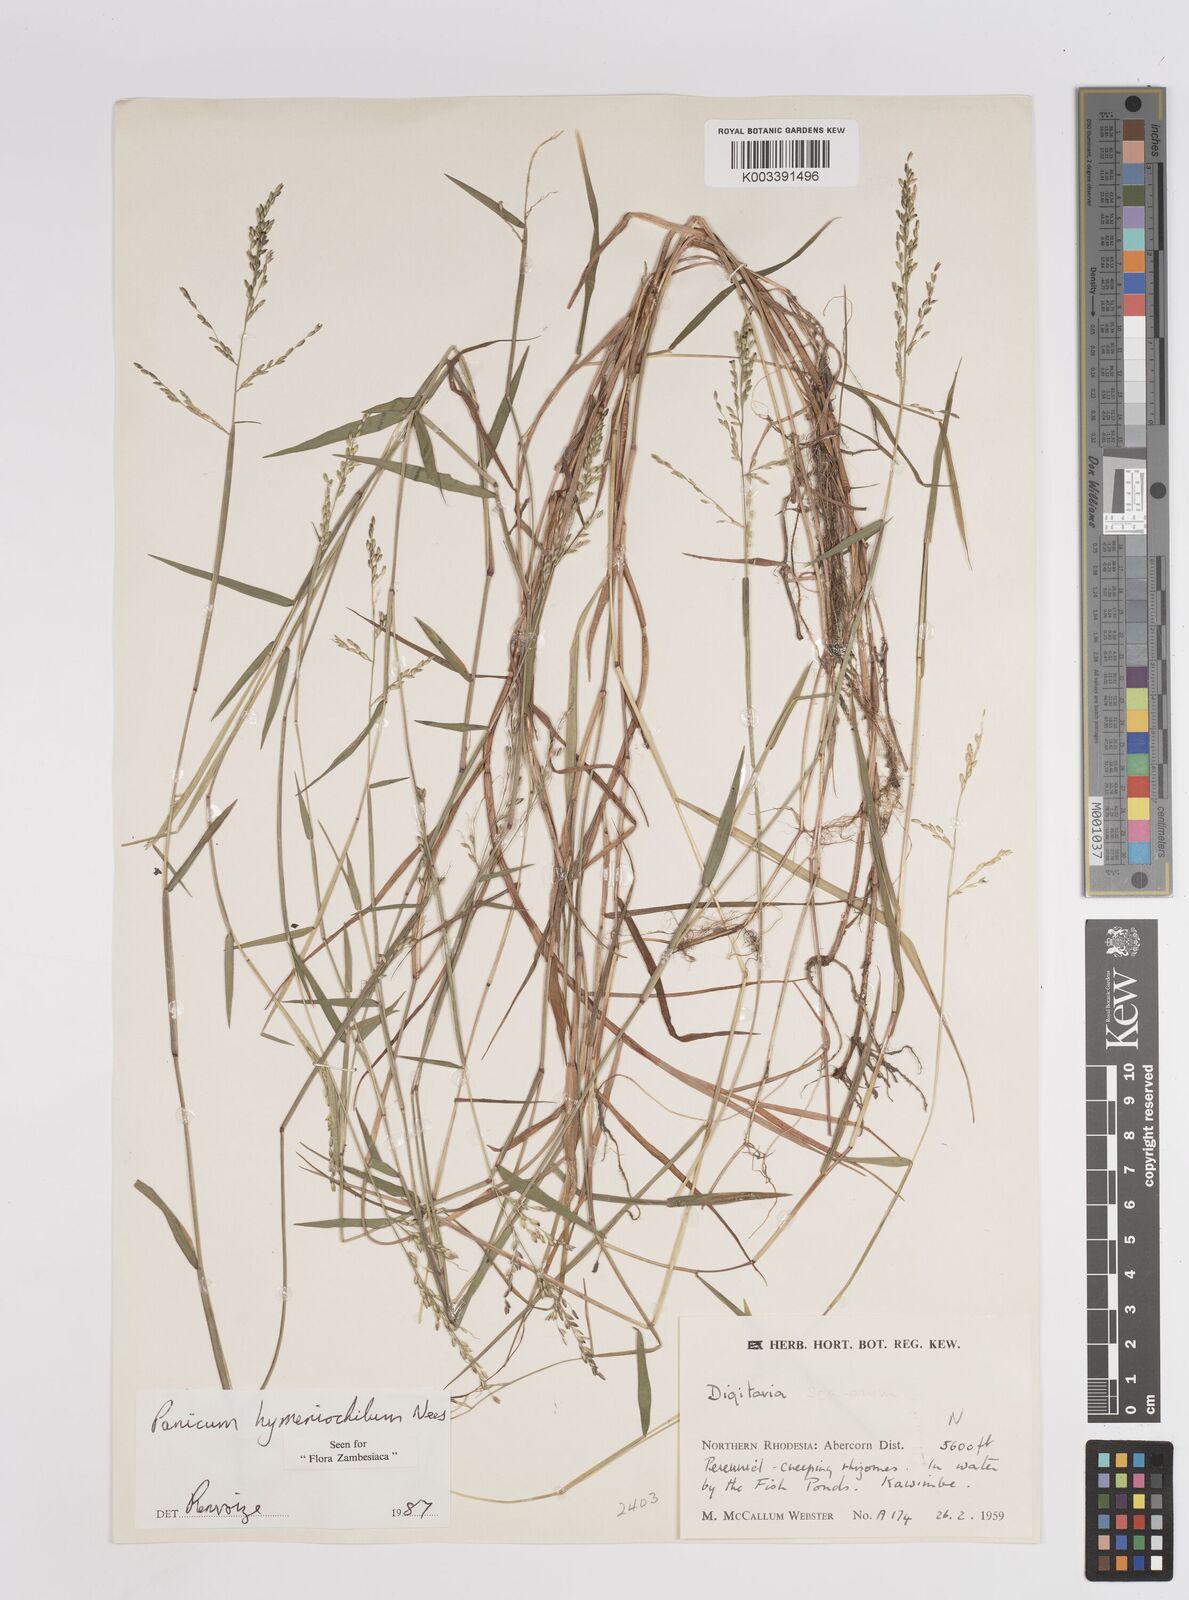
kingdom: Plantae
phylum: Tracheophyta
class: Liliopsida
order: Poales
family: Poaceae
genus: Adenochloa
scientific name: Adenochloa hymeniochila
